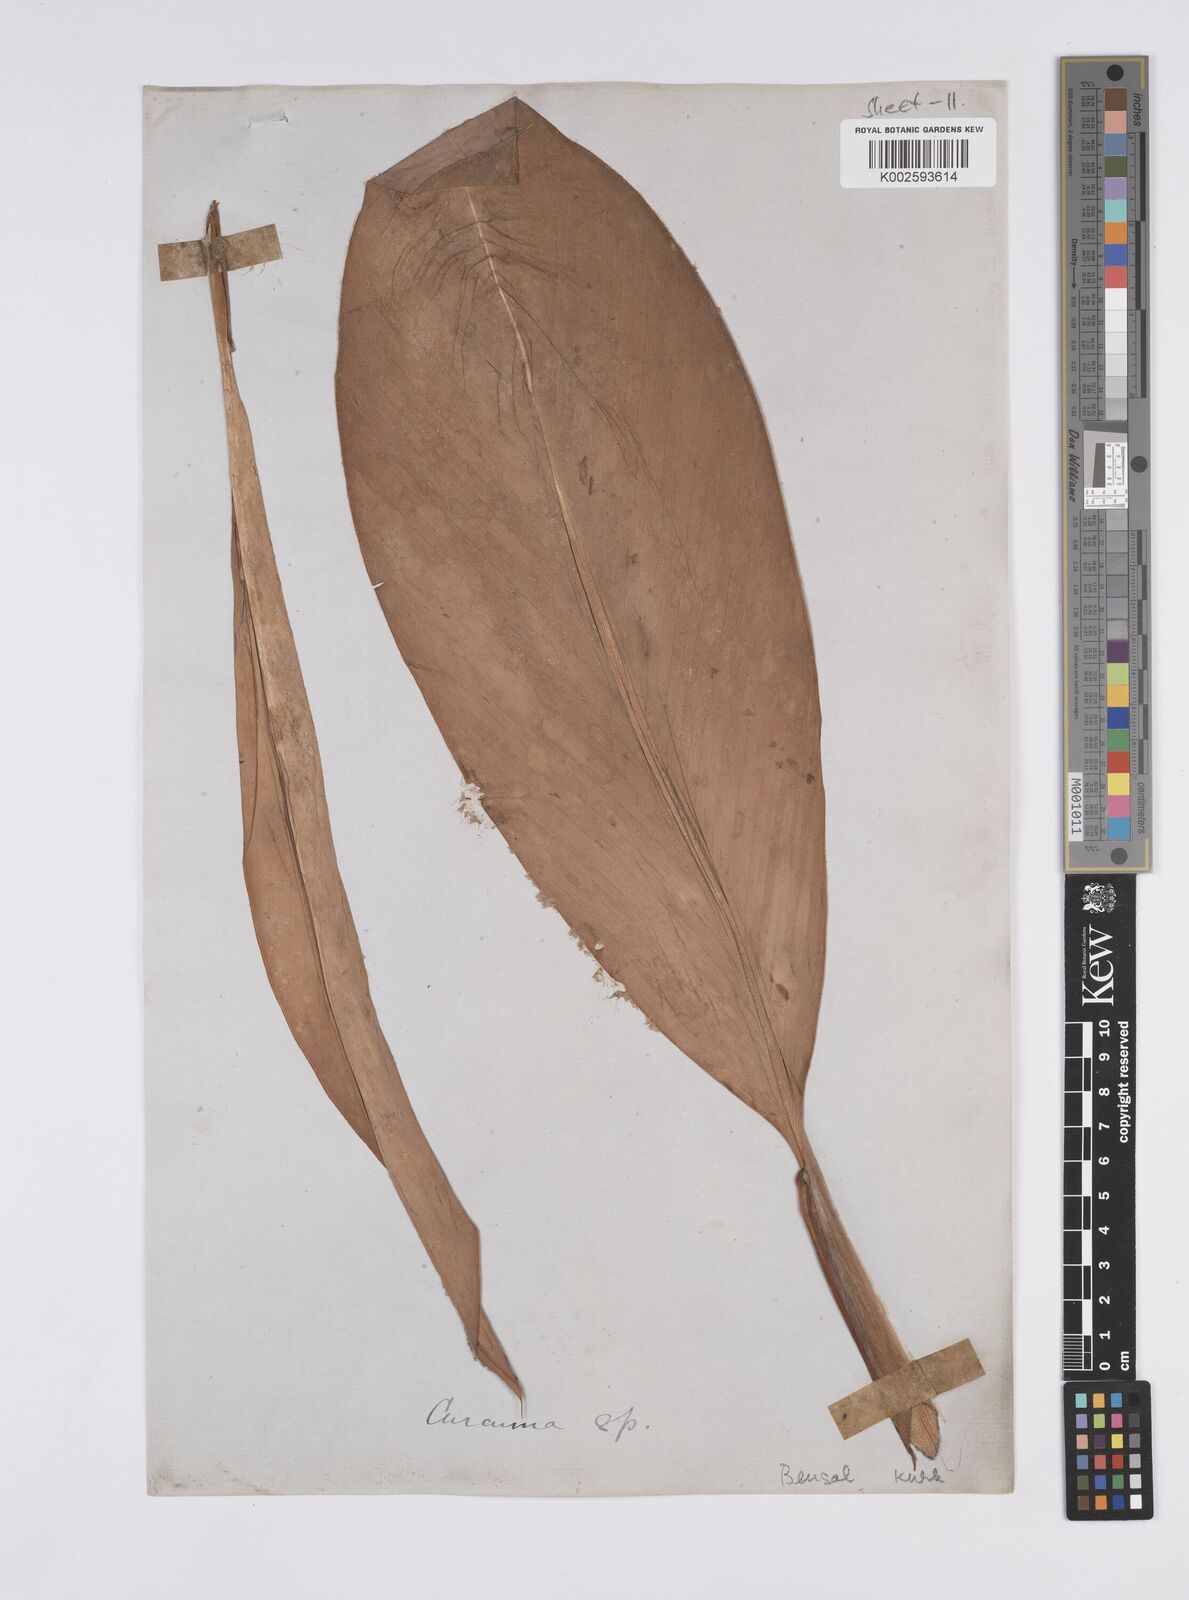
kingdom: Plantae
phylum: Tracheophyta
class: Liliopsida
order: Zingiberales
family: Zingiberaceae
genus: Curcuma
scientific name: Curcuma
